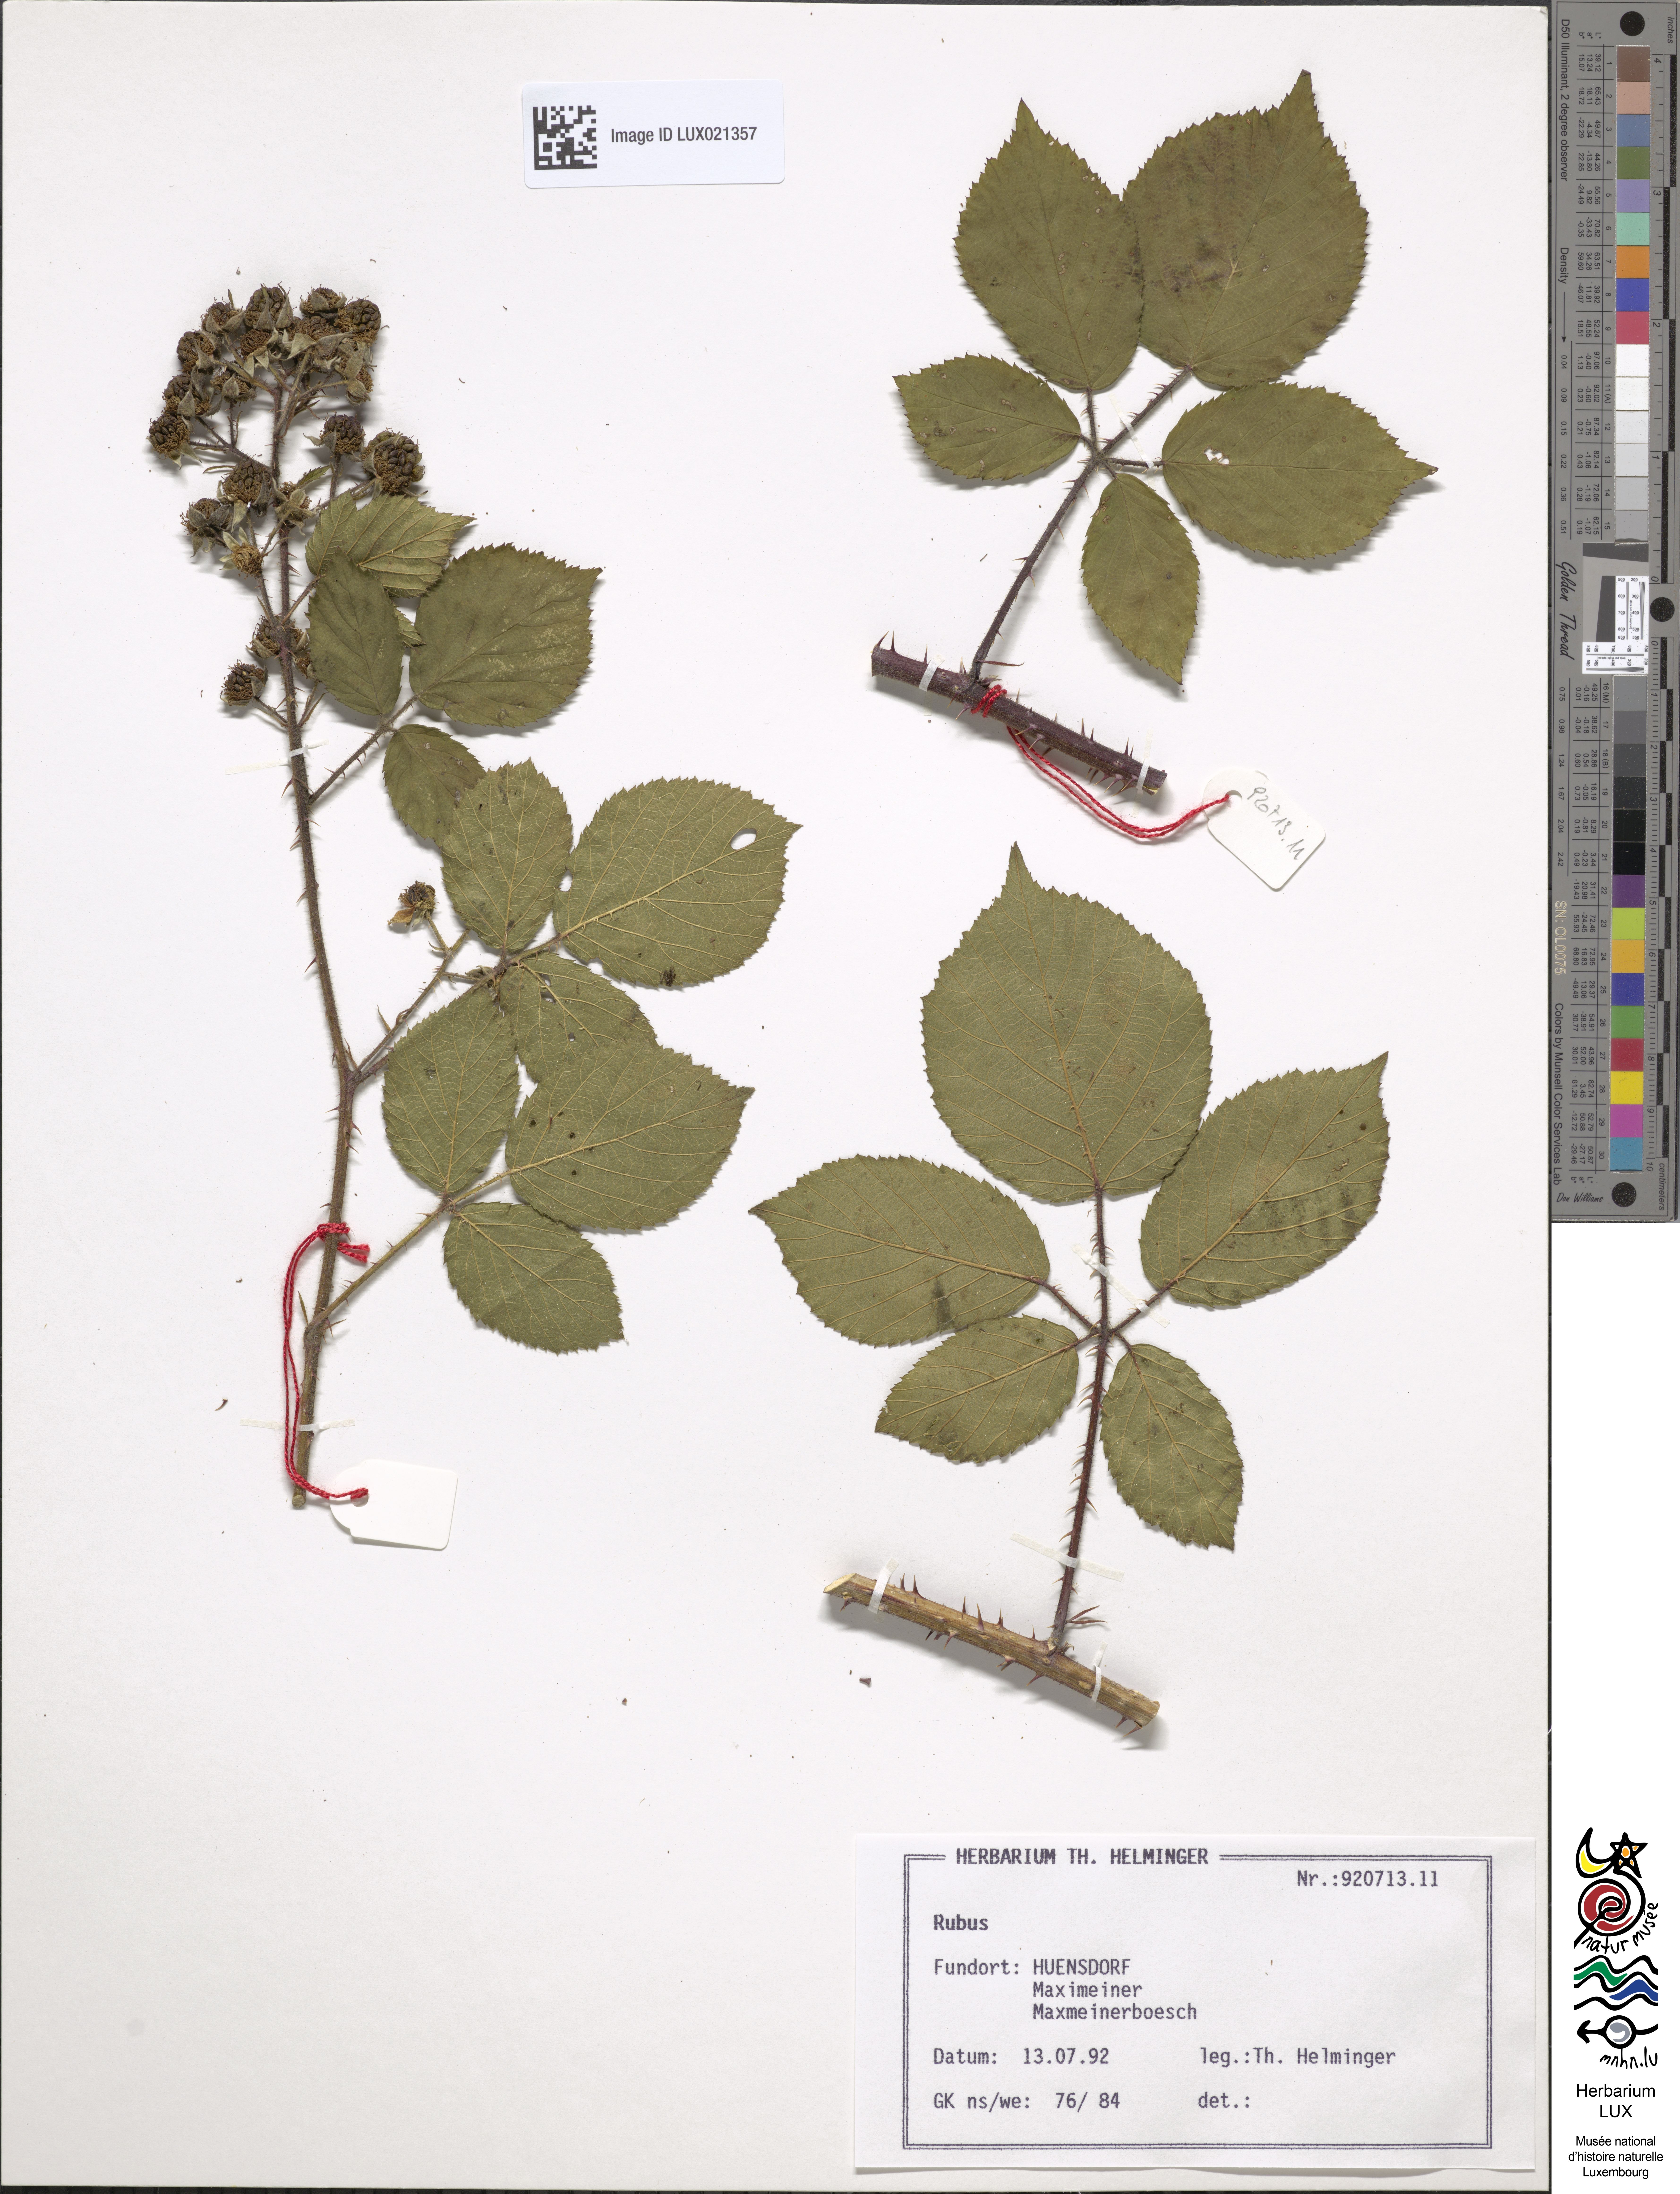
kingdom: Plantae
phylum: Tracheophyta
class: Magnoliopsida
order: Rosales
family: Rosaceae
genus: Rubus
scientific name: Rubus
